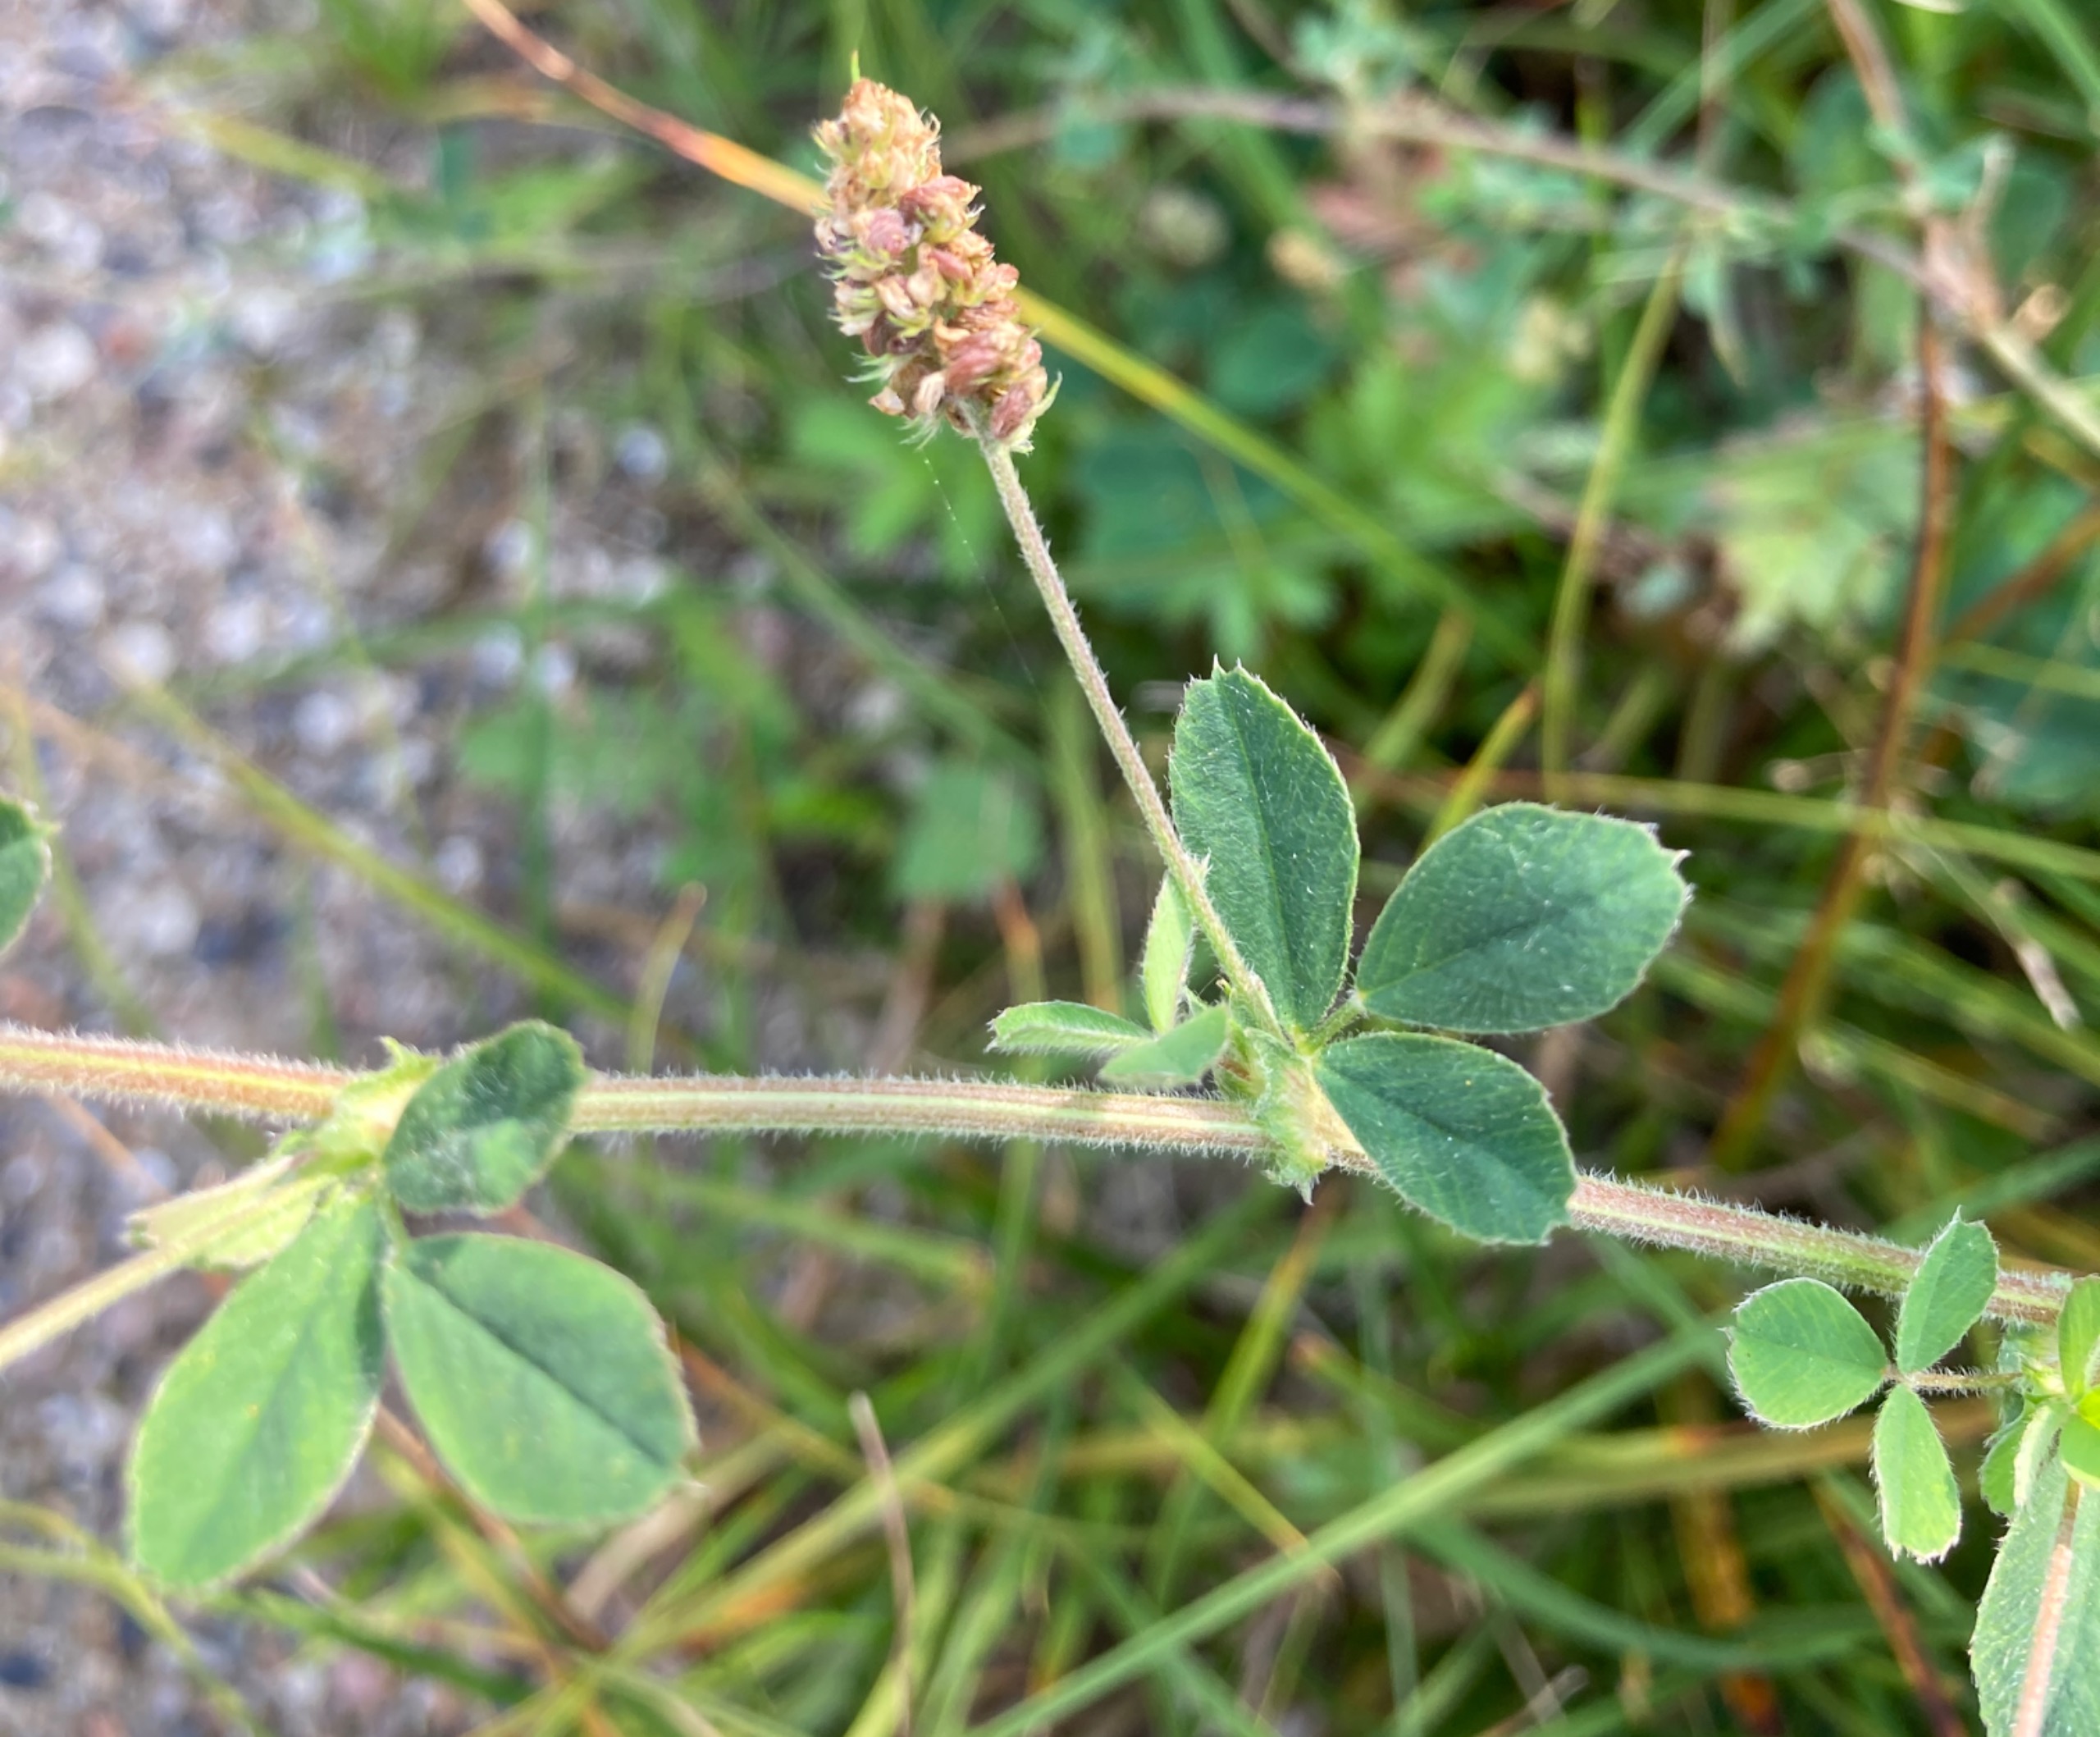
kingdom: Plantae
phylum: Tracheophyta
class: Magnoliopsida
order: Fabales
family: Fabaceae
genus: Medicago
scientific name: Medicago lupulina
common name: Humle-sneglebælg
